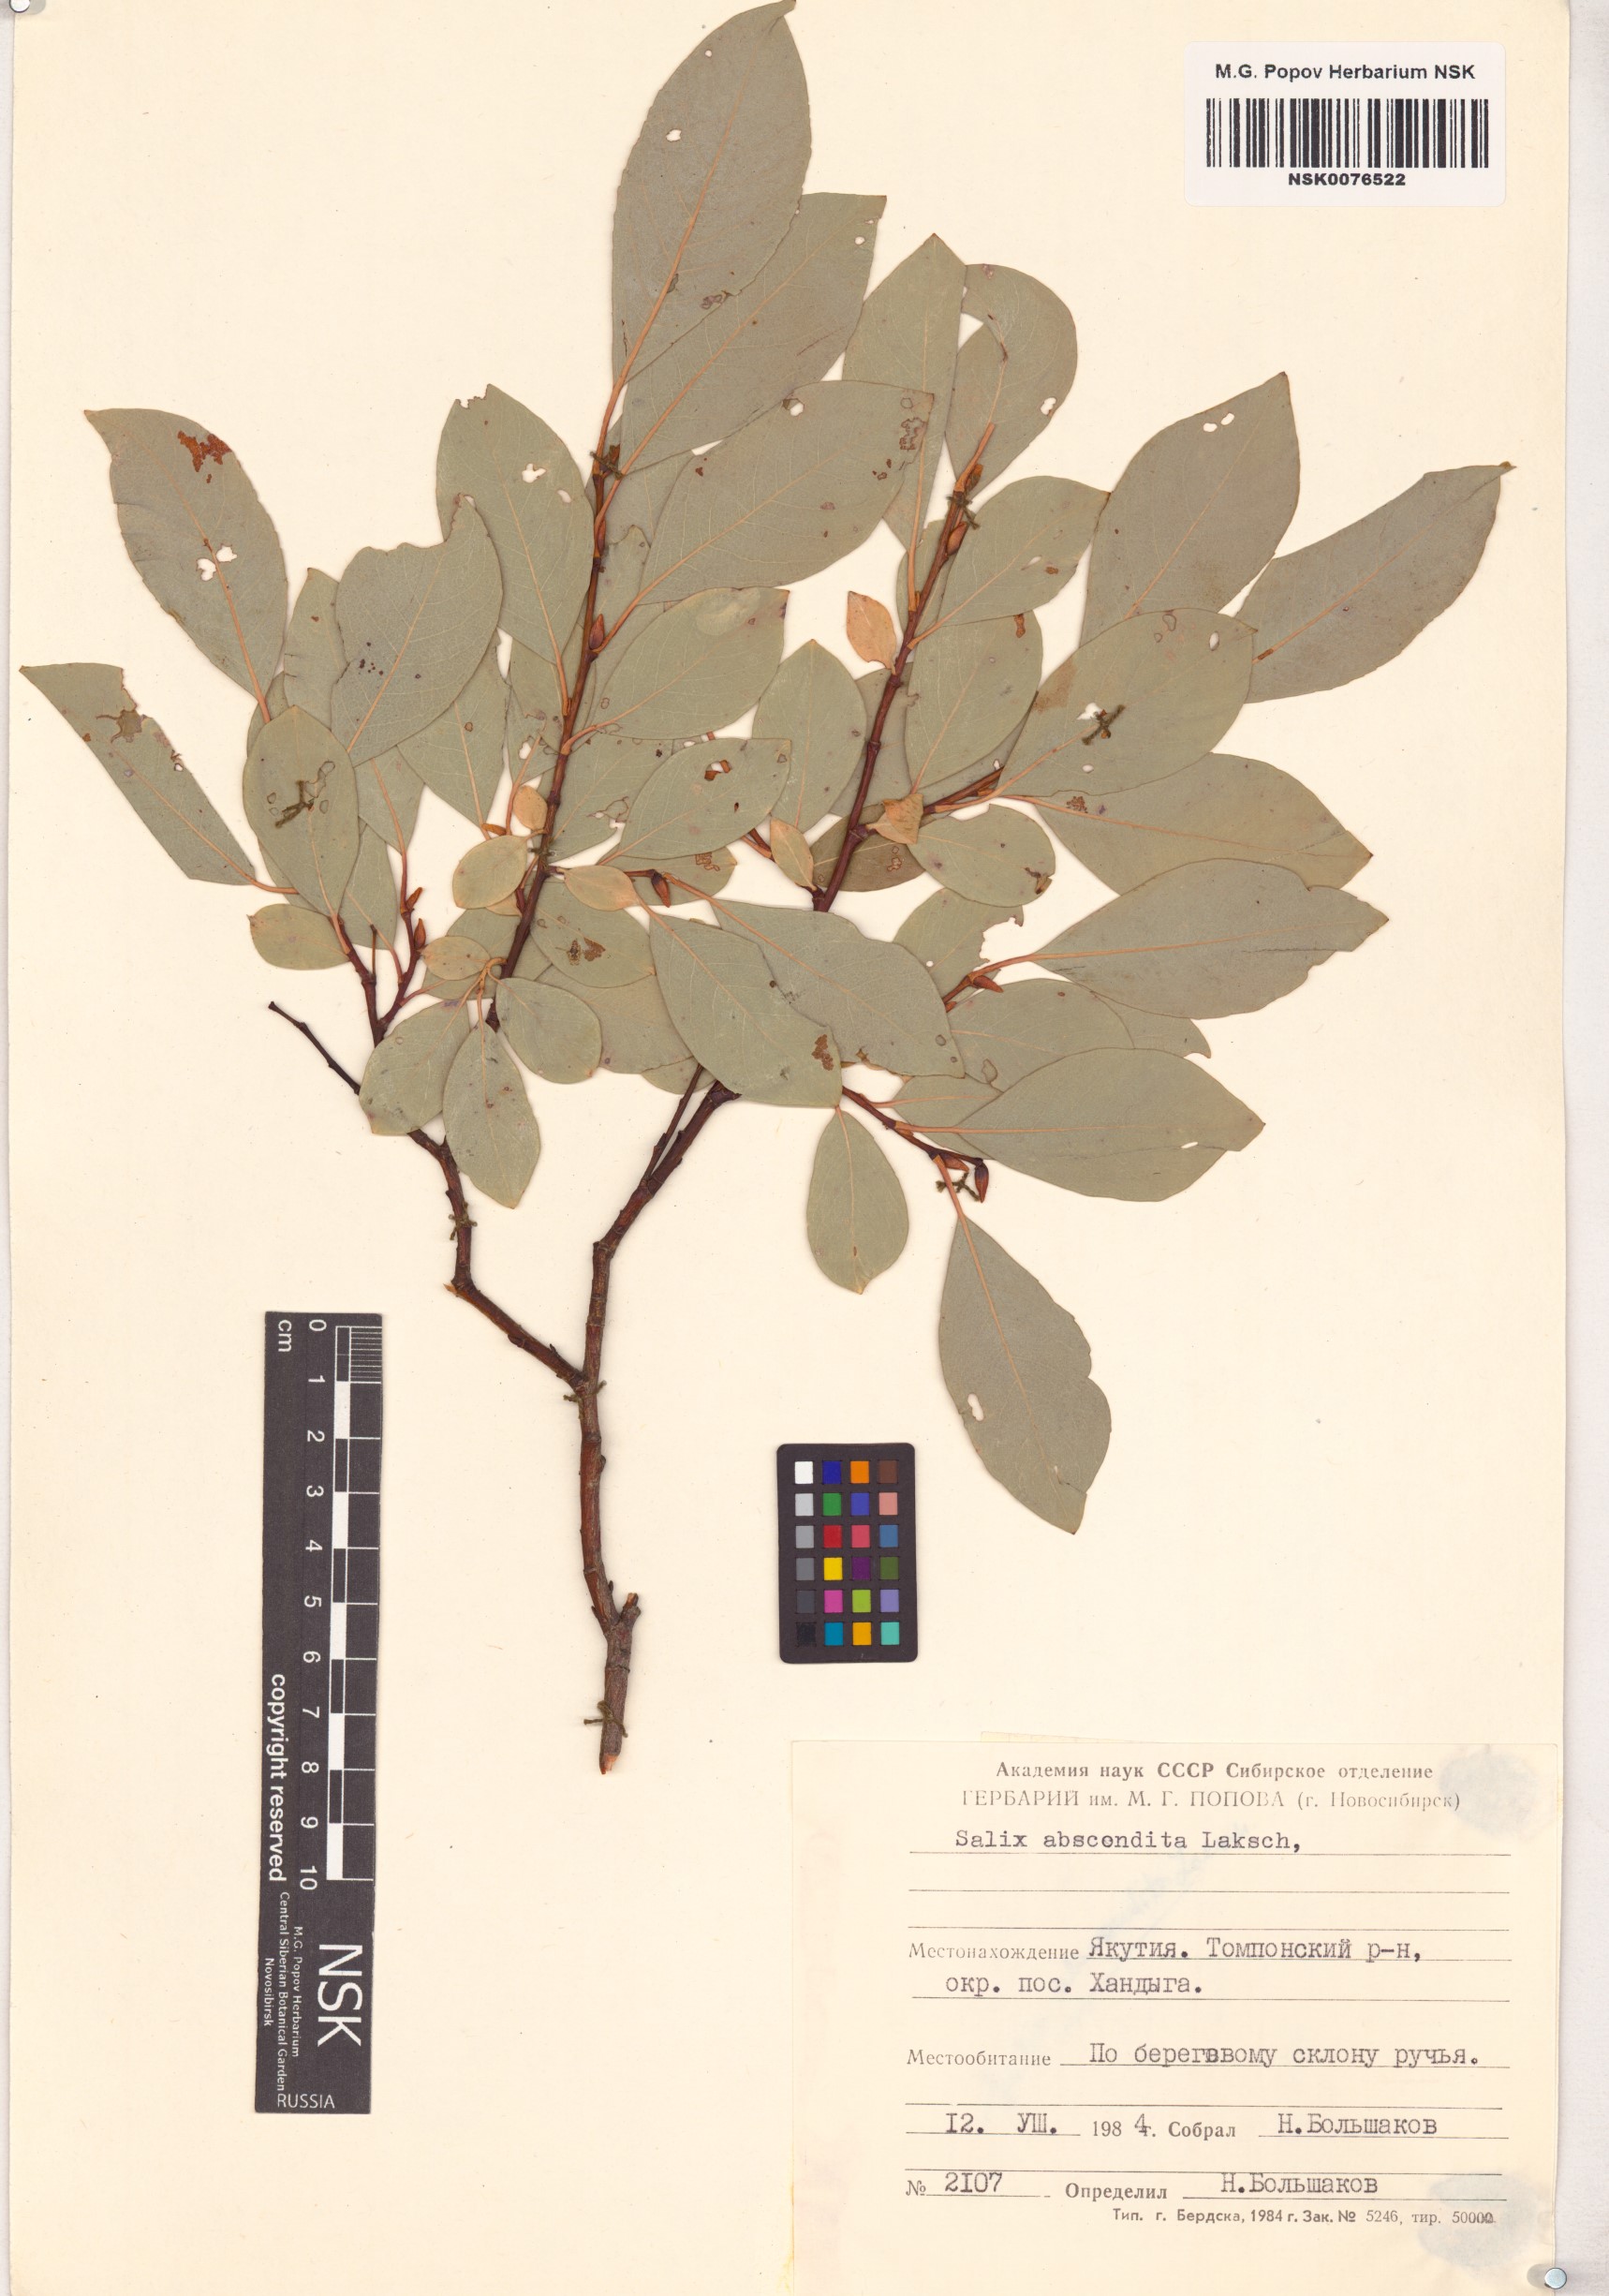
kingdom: Plantae
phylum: Tracheophyta
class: Magnoliopsida
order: Malpighiales
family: Salicaceae
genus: Salix
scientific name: Salix abscondita
